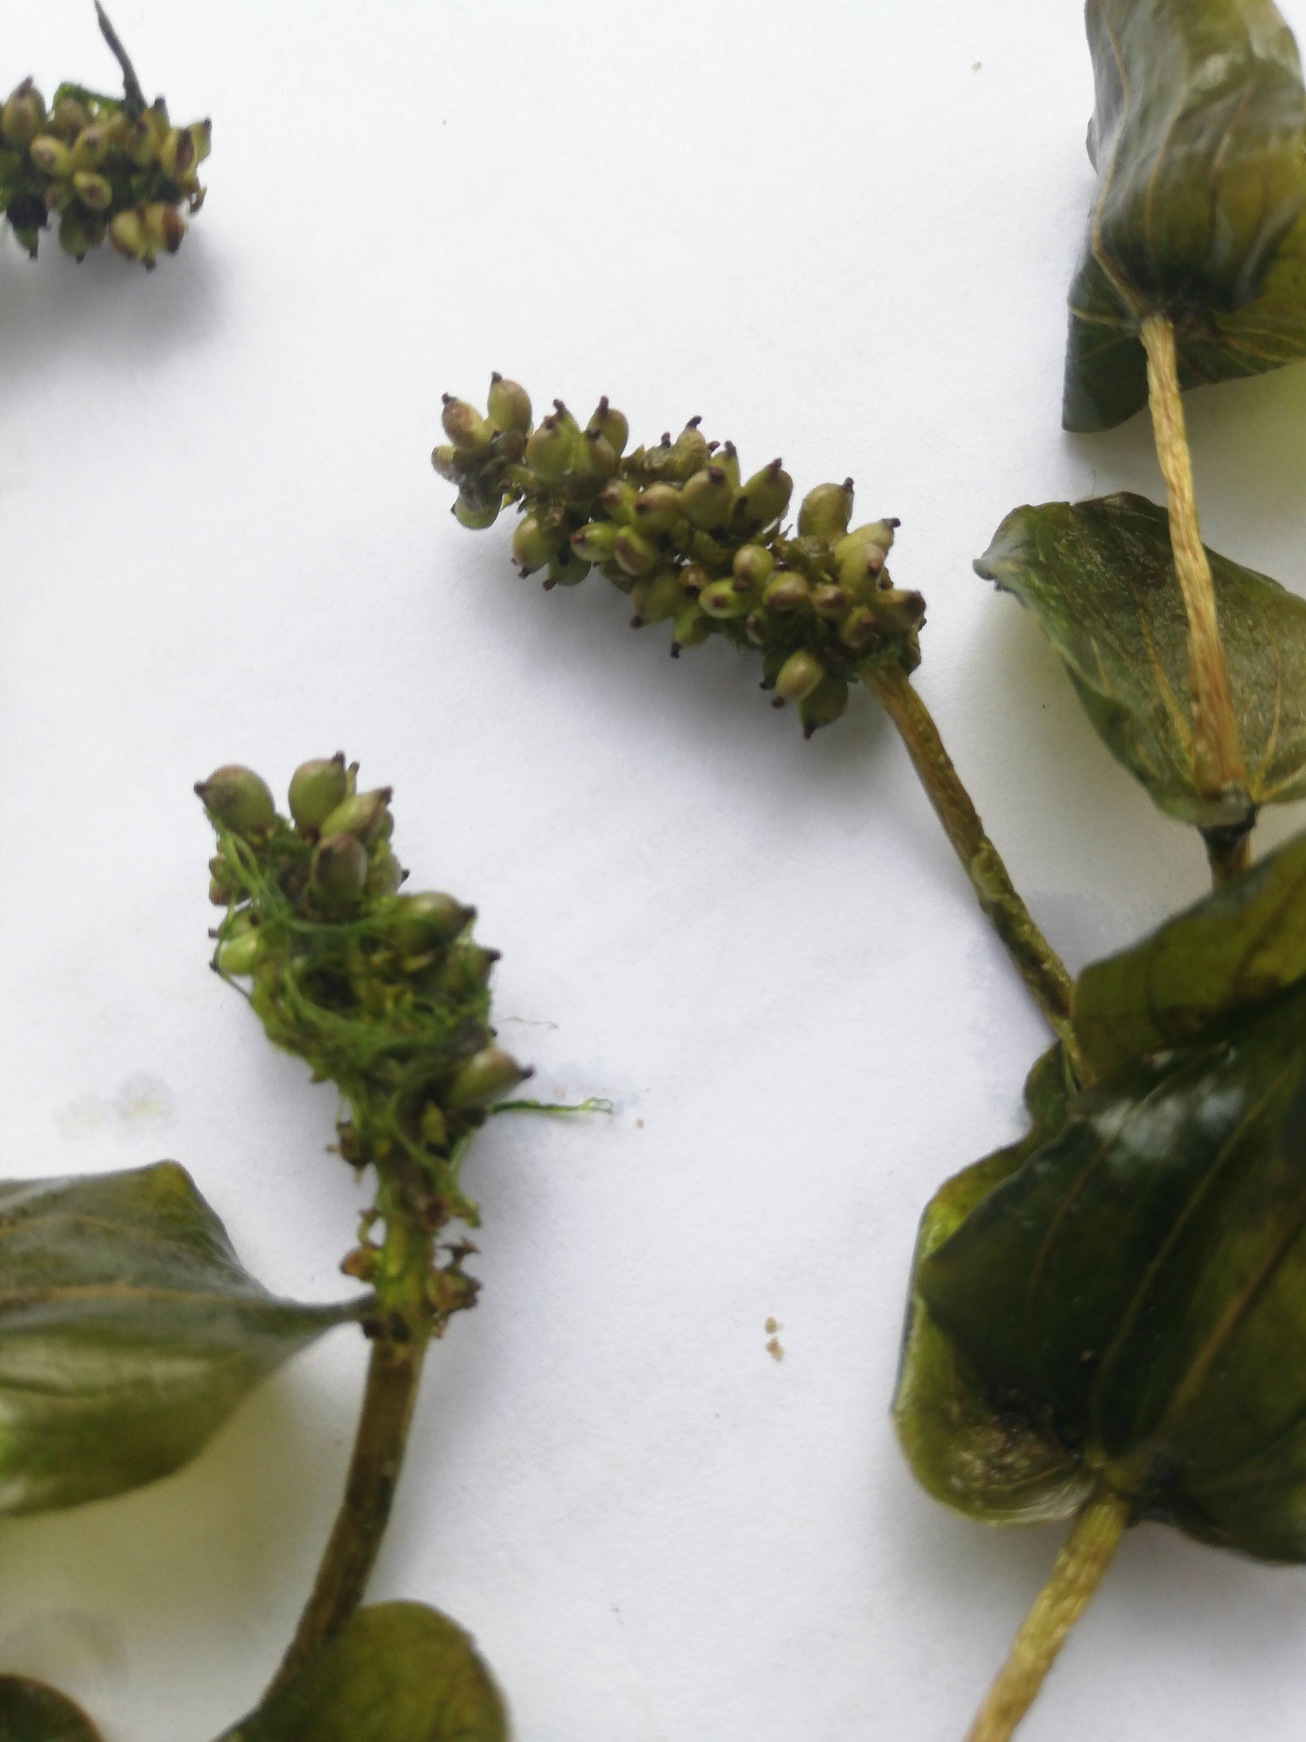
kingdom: Plantae
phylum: Tracheophyta
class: Liliopsida
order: Alismatales
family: Potamogetonaceae
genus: Potamogeton
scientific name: Potamogeton perfoliatus
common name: Hjertebladet vandaks
